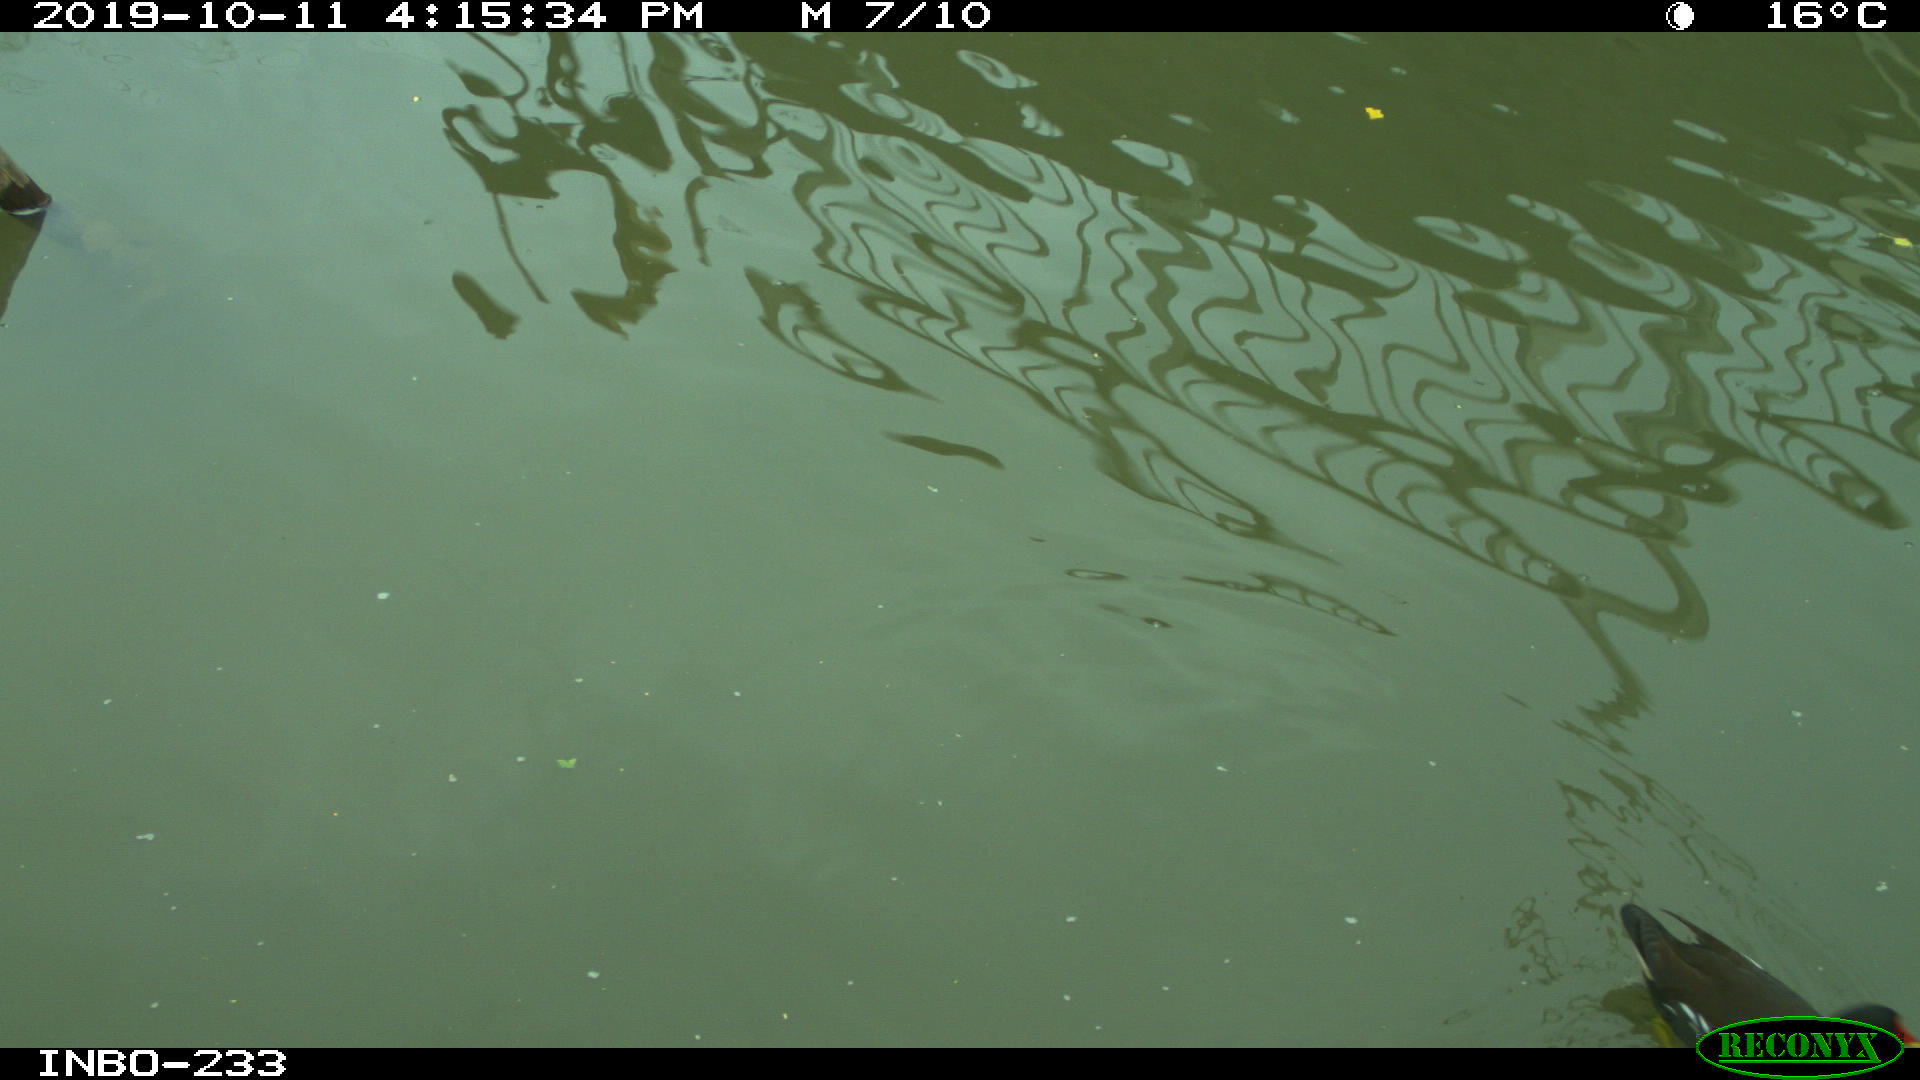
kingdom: Animalia
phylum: Chordata
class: Aves
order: Gruiformes
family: Rallidae
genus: Gallinula
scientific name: Gallinula chloropus
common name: Common moorhen
